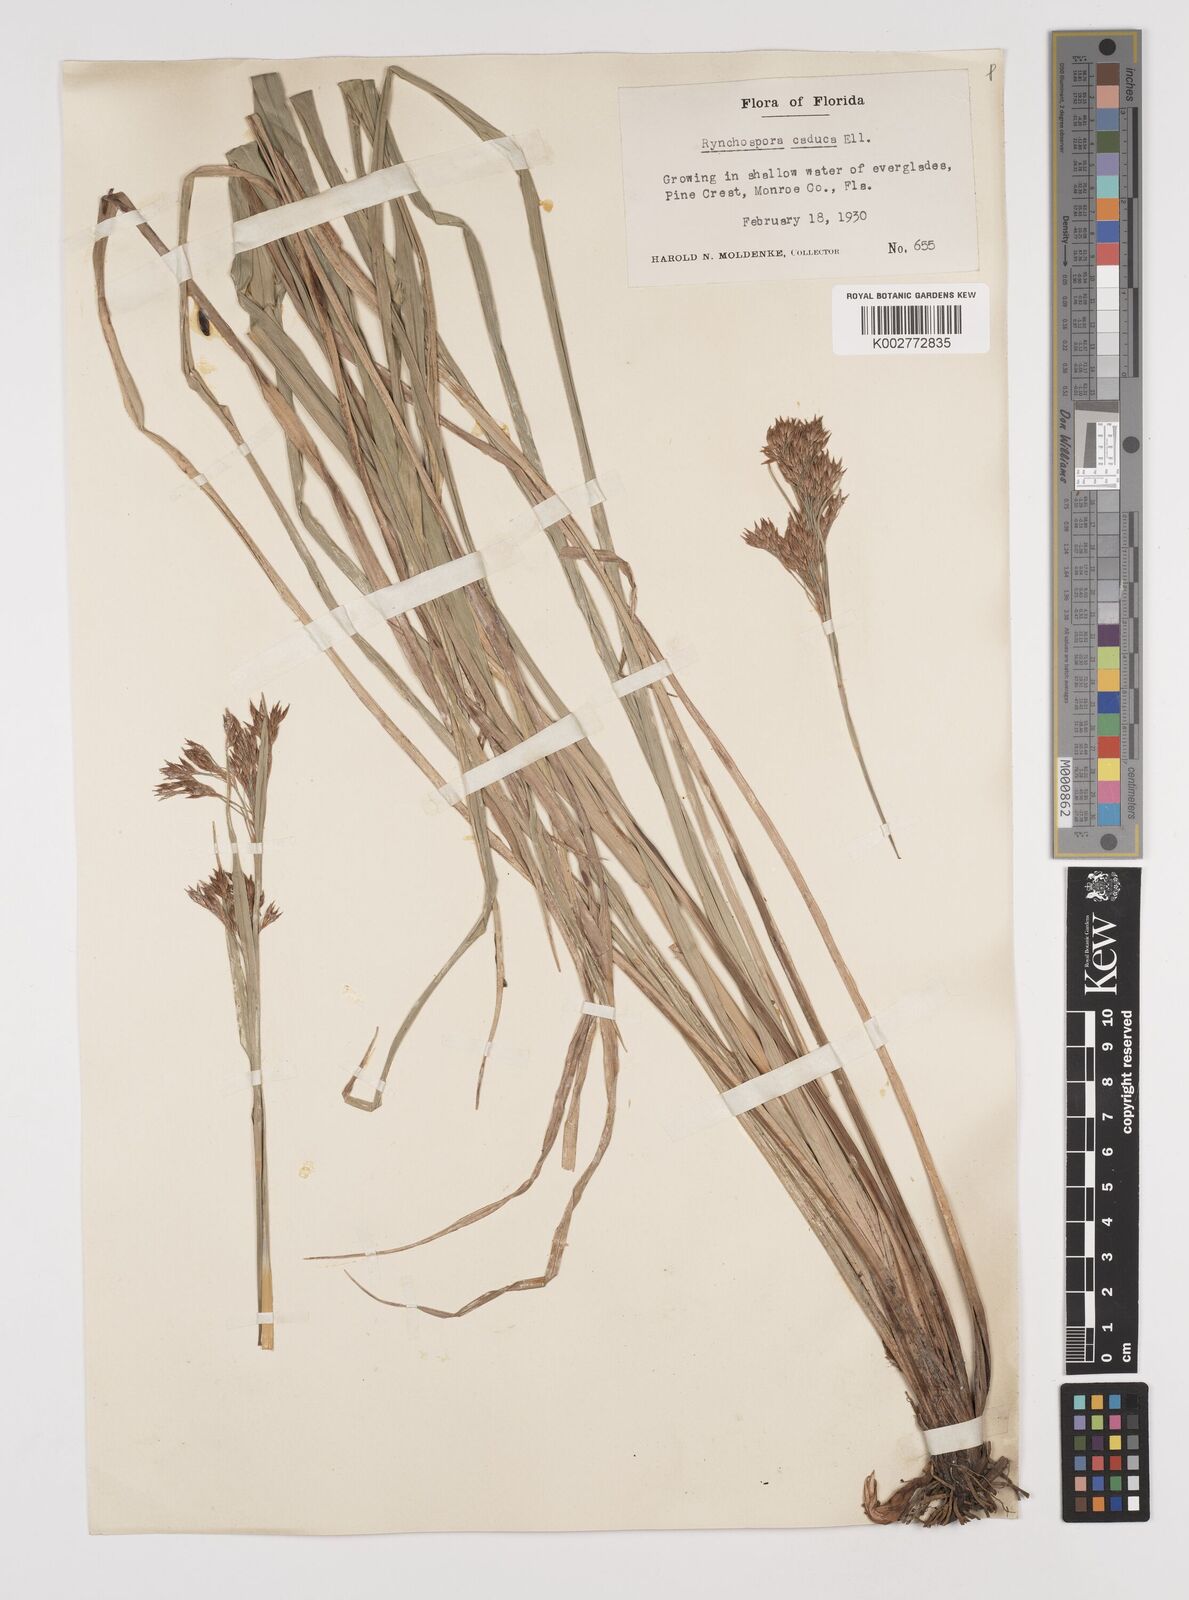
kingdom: Plantae
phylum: Tracheophyta
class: Liliopsida
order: Poales
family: Cyperaceae
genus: Rhynchospora
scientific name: Rhynchospora caduca
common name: Anglestem beaksedge
